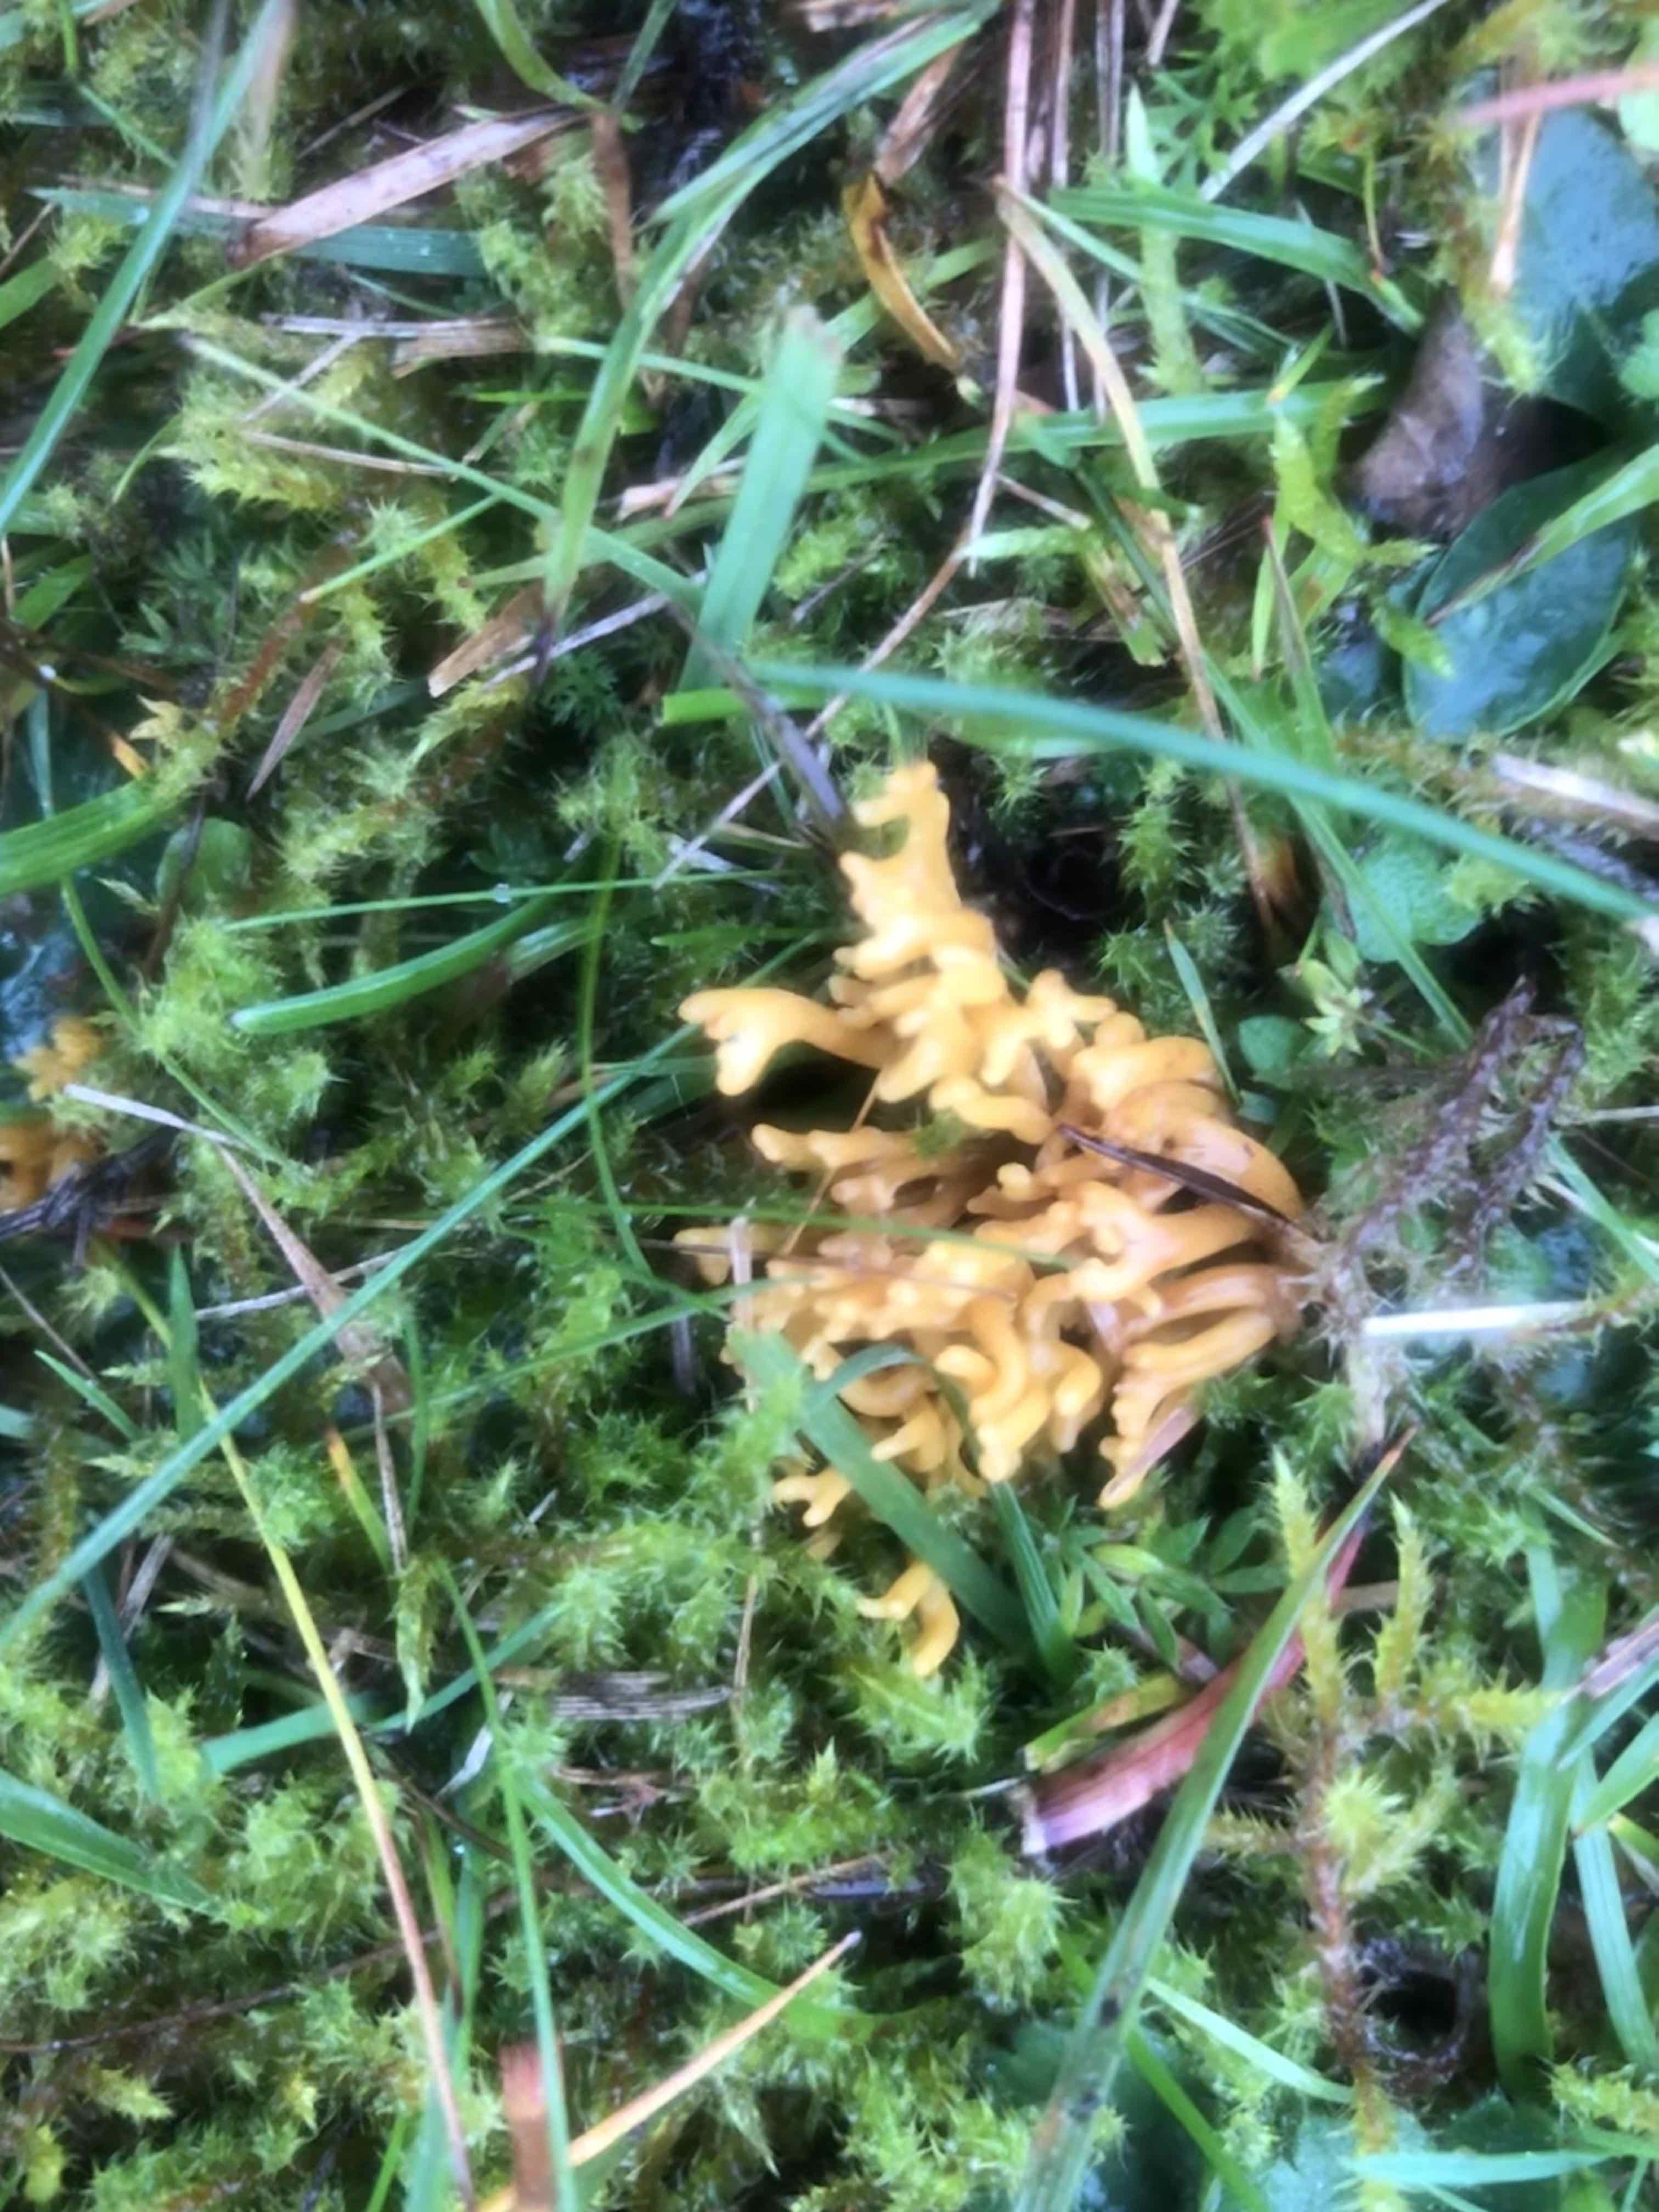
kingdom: Fungi
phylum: Basidiomycota
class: Agaricomycetes
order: Agaricales
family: Clavariaceae
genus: Clavulinopsis
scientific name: Clavulinopsis corniculata
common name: eng-køllesvamp
